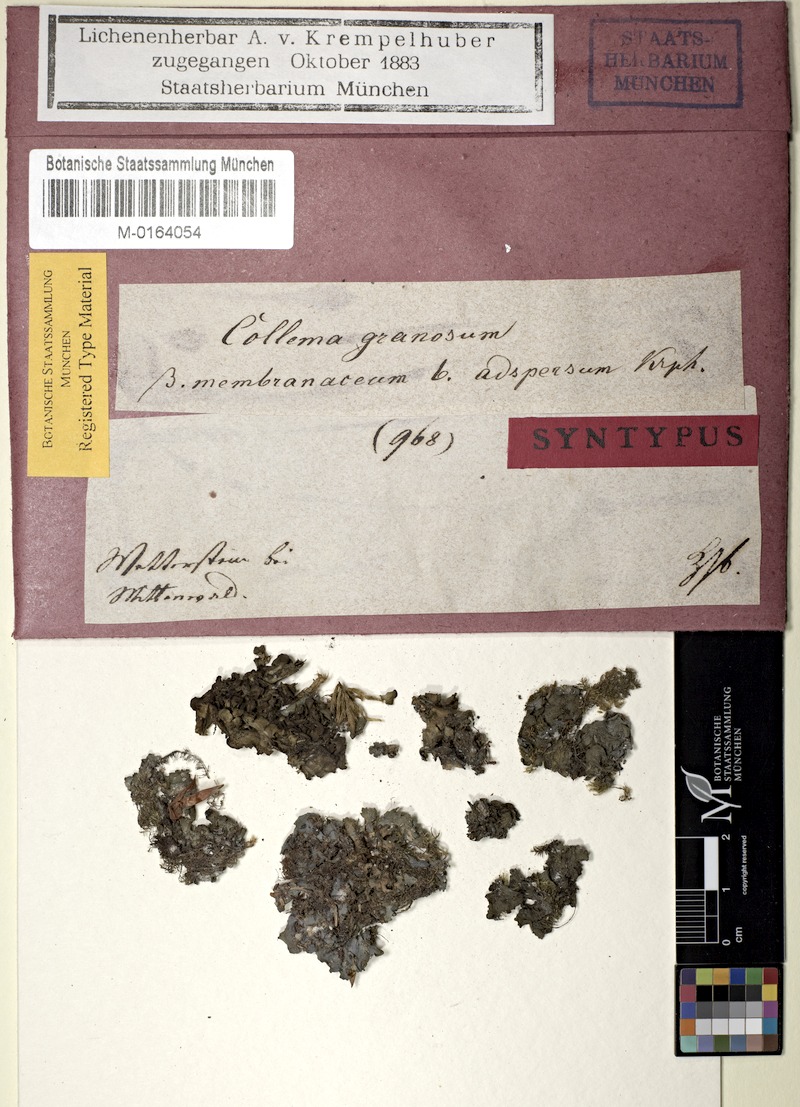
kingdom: Fungi
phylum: Ascomycota
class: Lecanoromycetes
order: Peltigerales
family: Collemataceae
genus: Lathagrium
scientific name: Lathagrium auriforme
